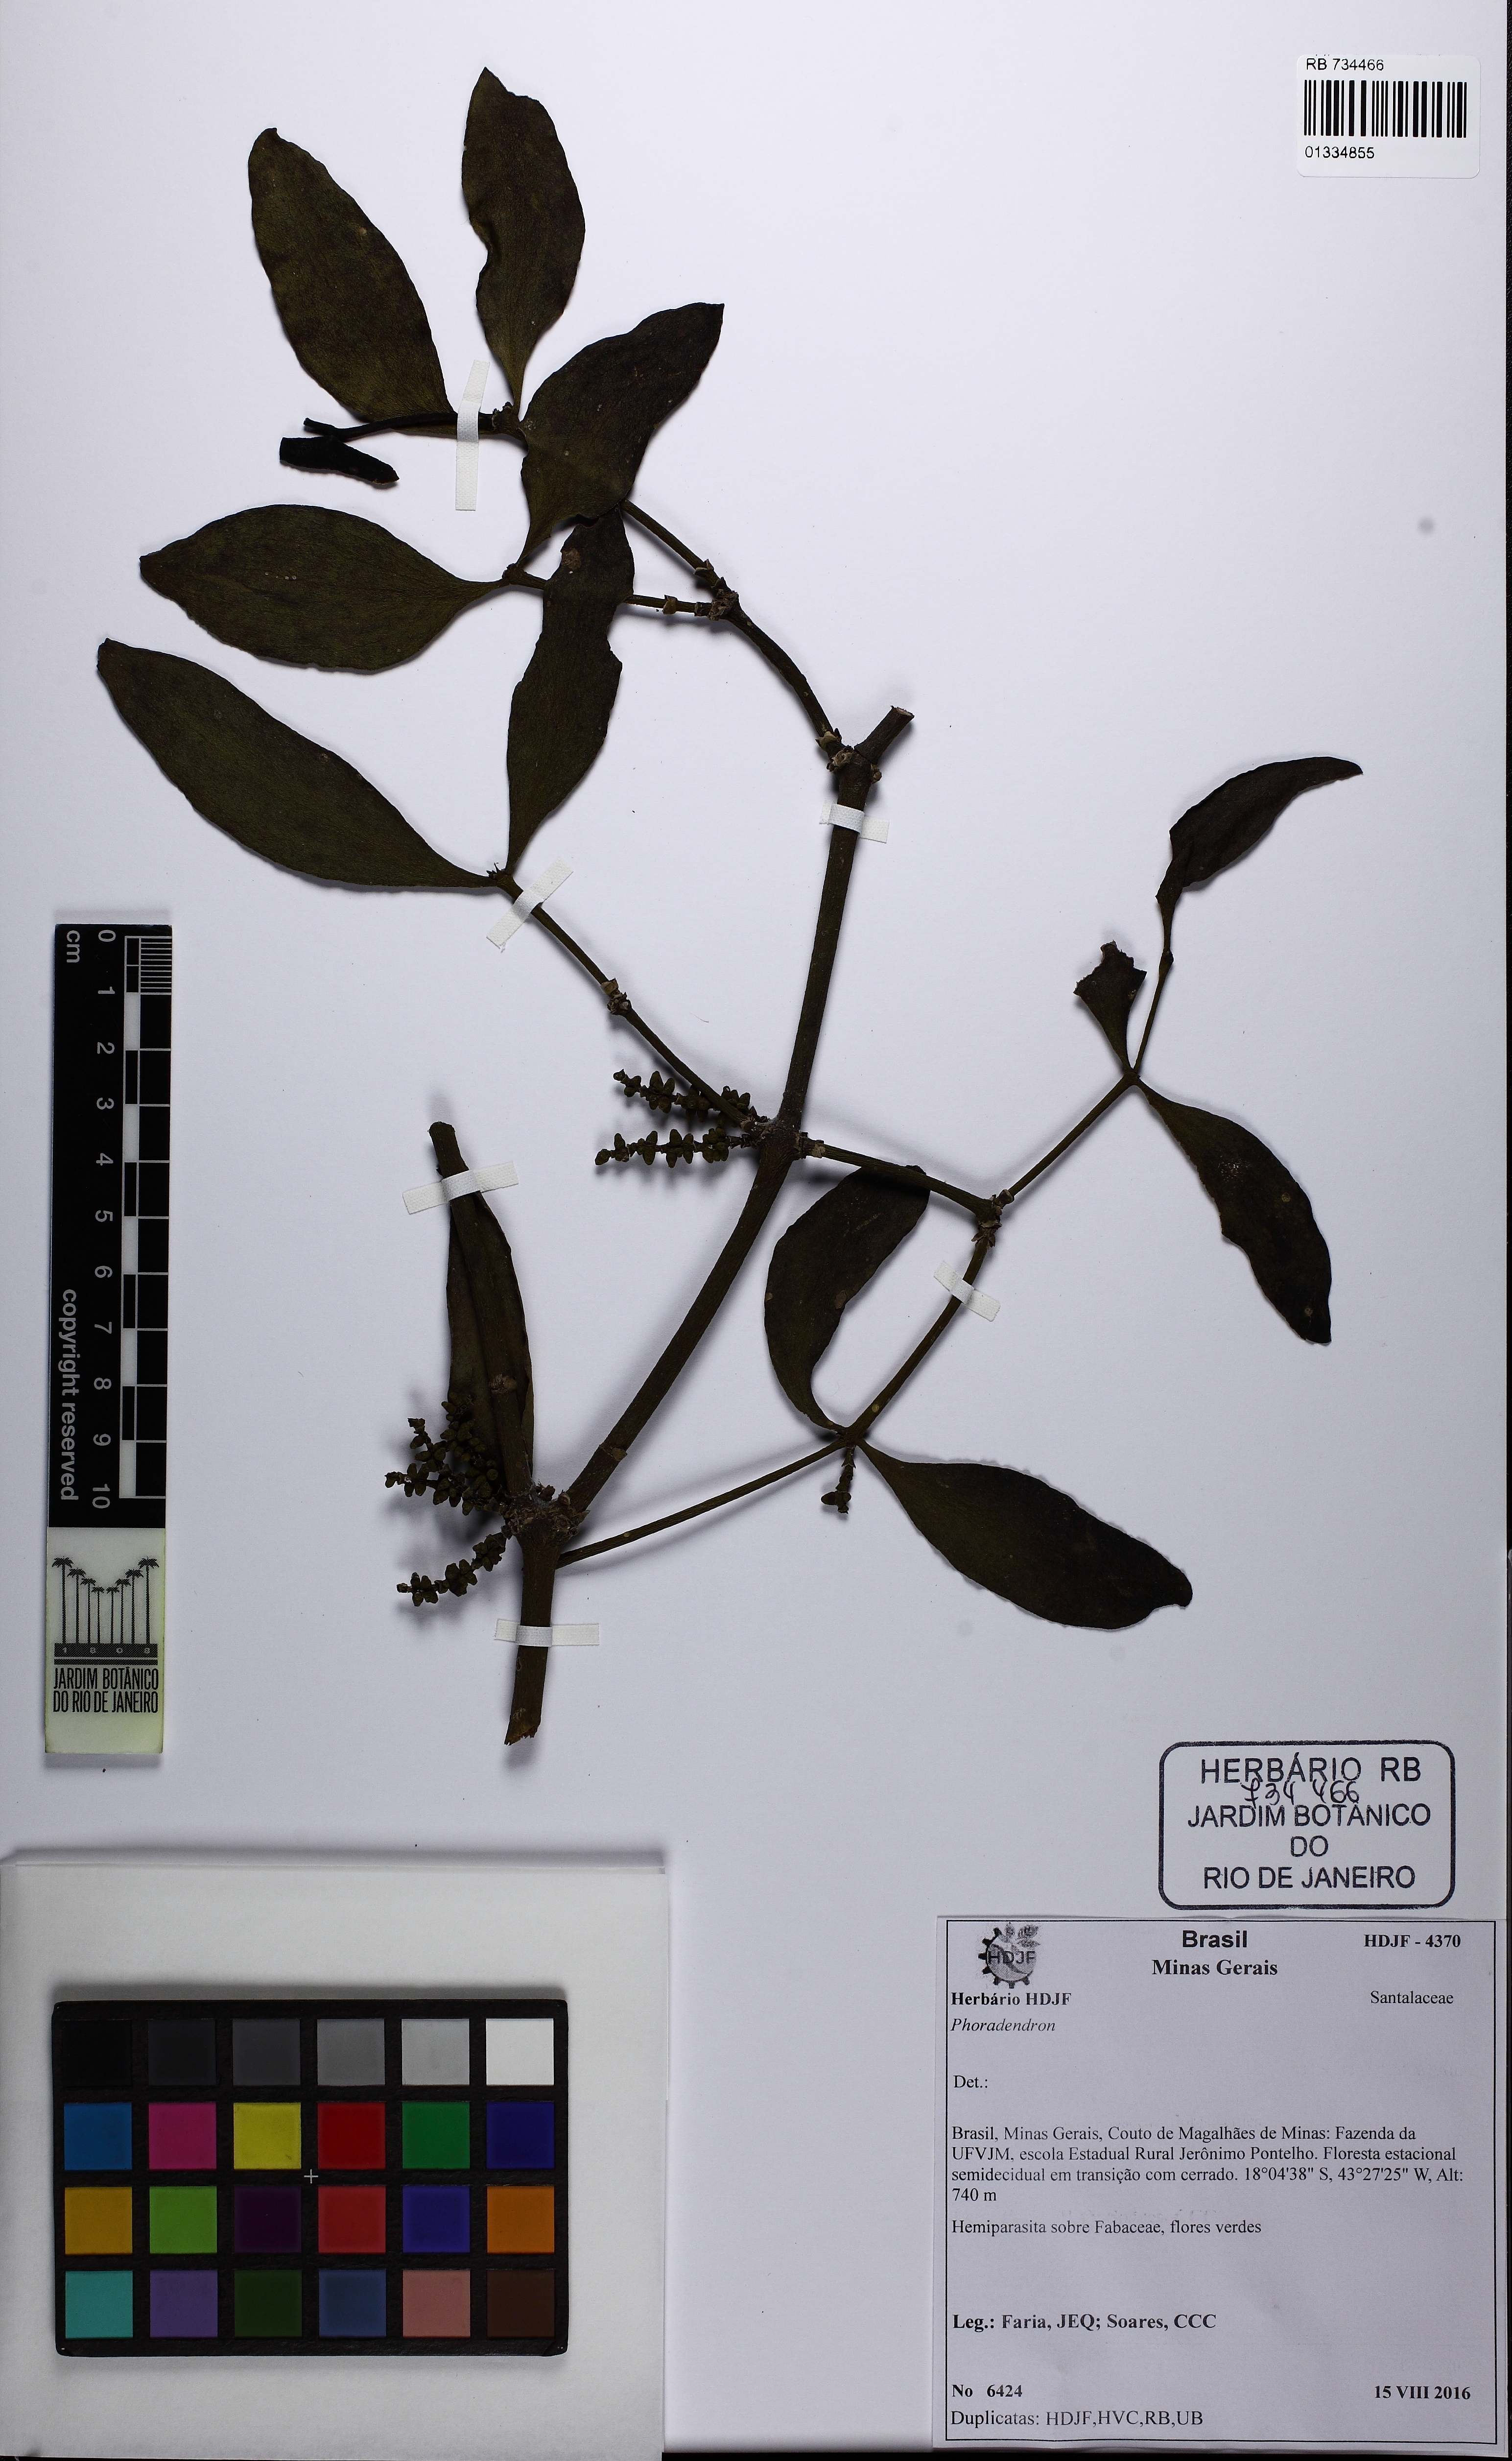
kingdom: Plantae
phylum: Tracheophyta
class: Magnoliopsida
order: Santalales
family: Viscaceae
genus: Phoradendron
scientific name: Phoradendron coriaceum
